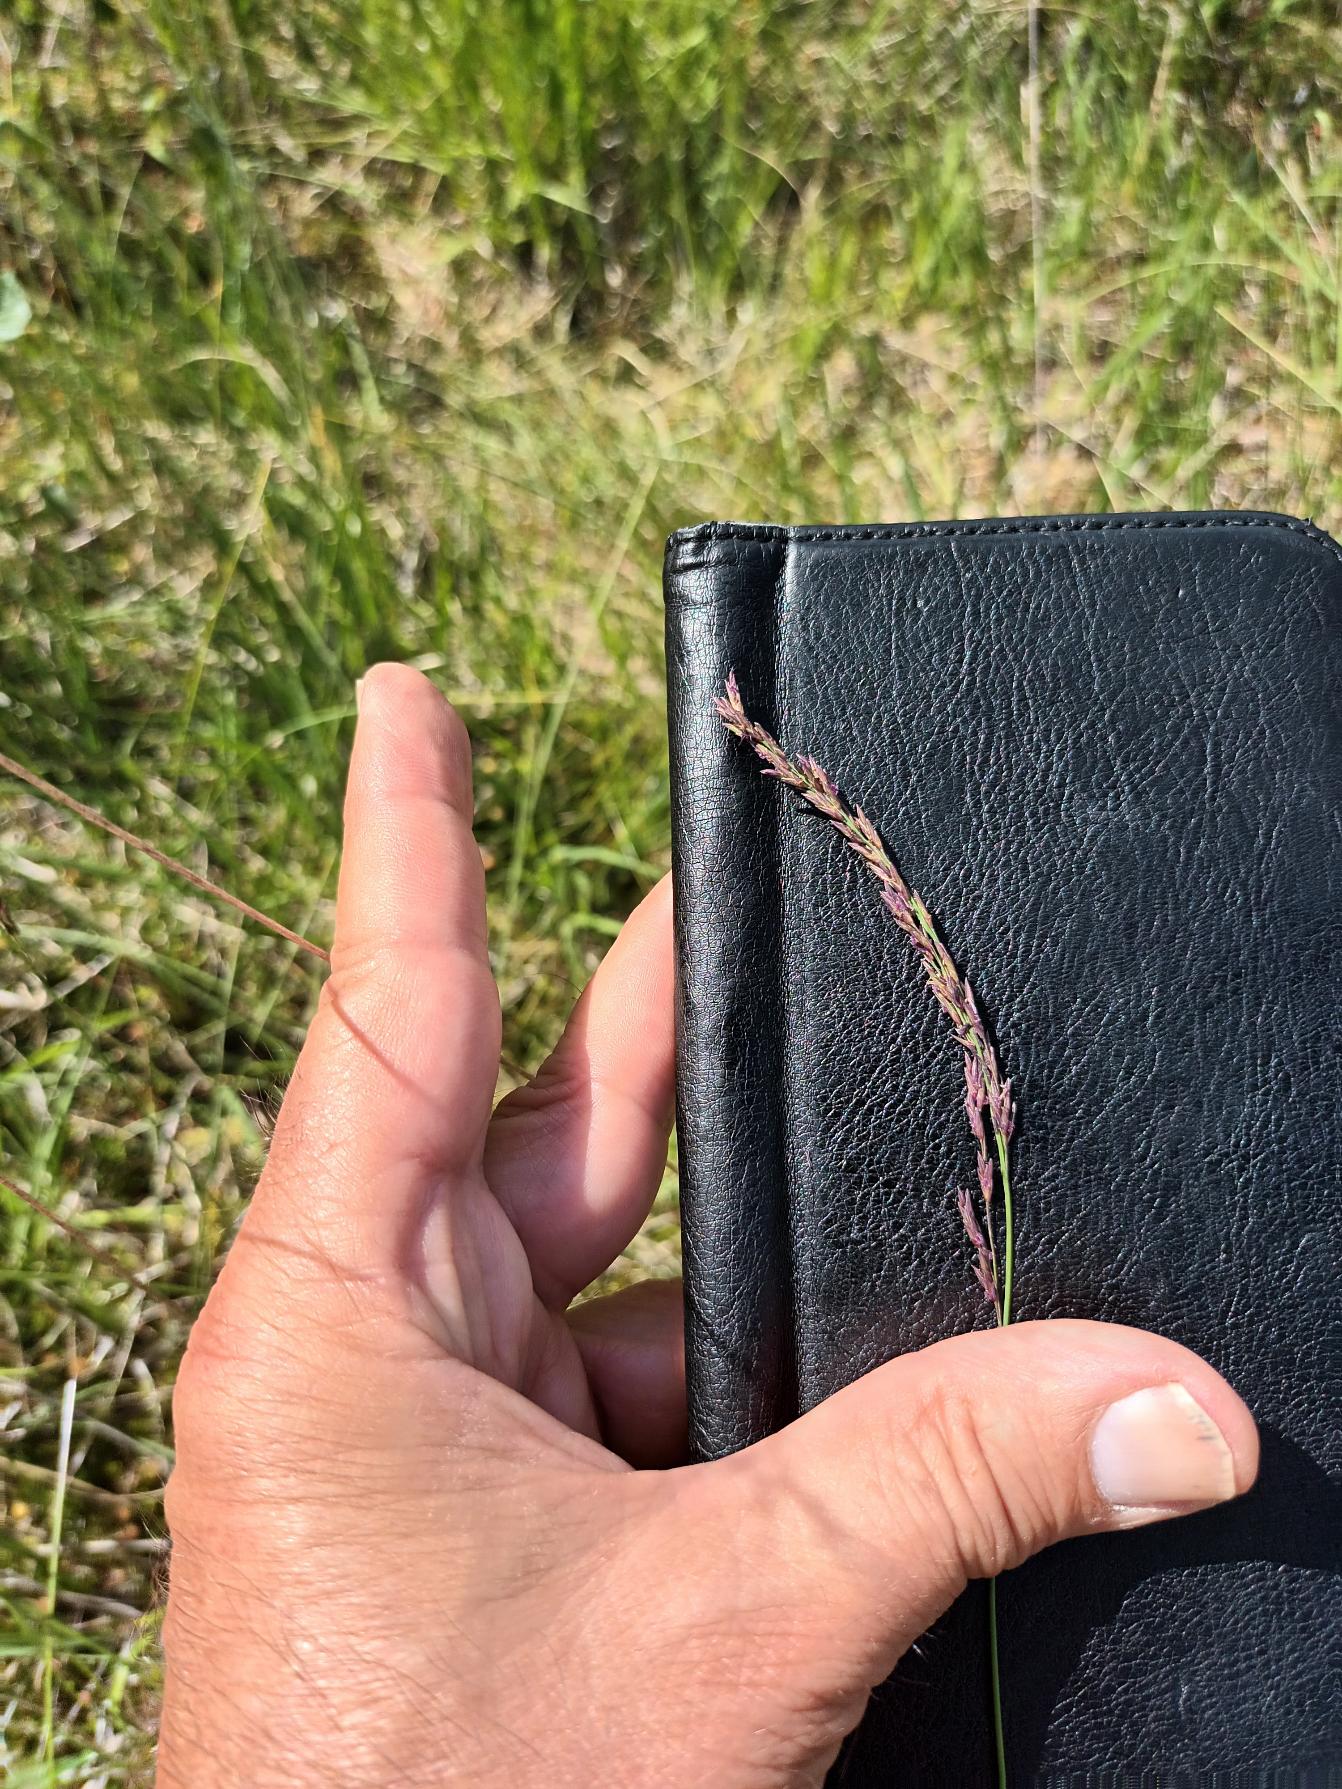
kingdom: Plantae
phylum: Tracheophyta
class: Liliopsida
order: Poales
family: Poaceae
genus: Molinia
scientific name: Molinia caerulea
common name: Blåtop
